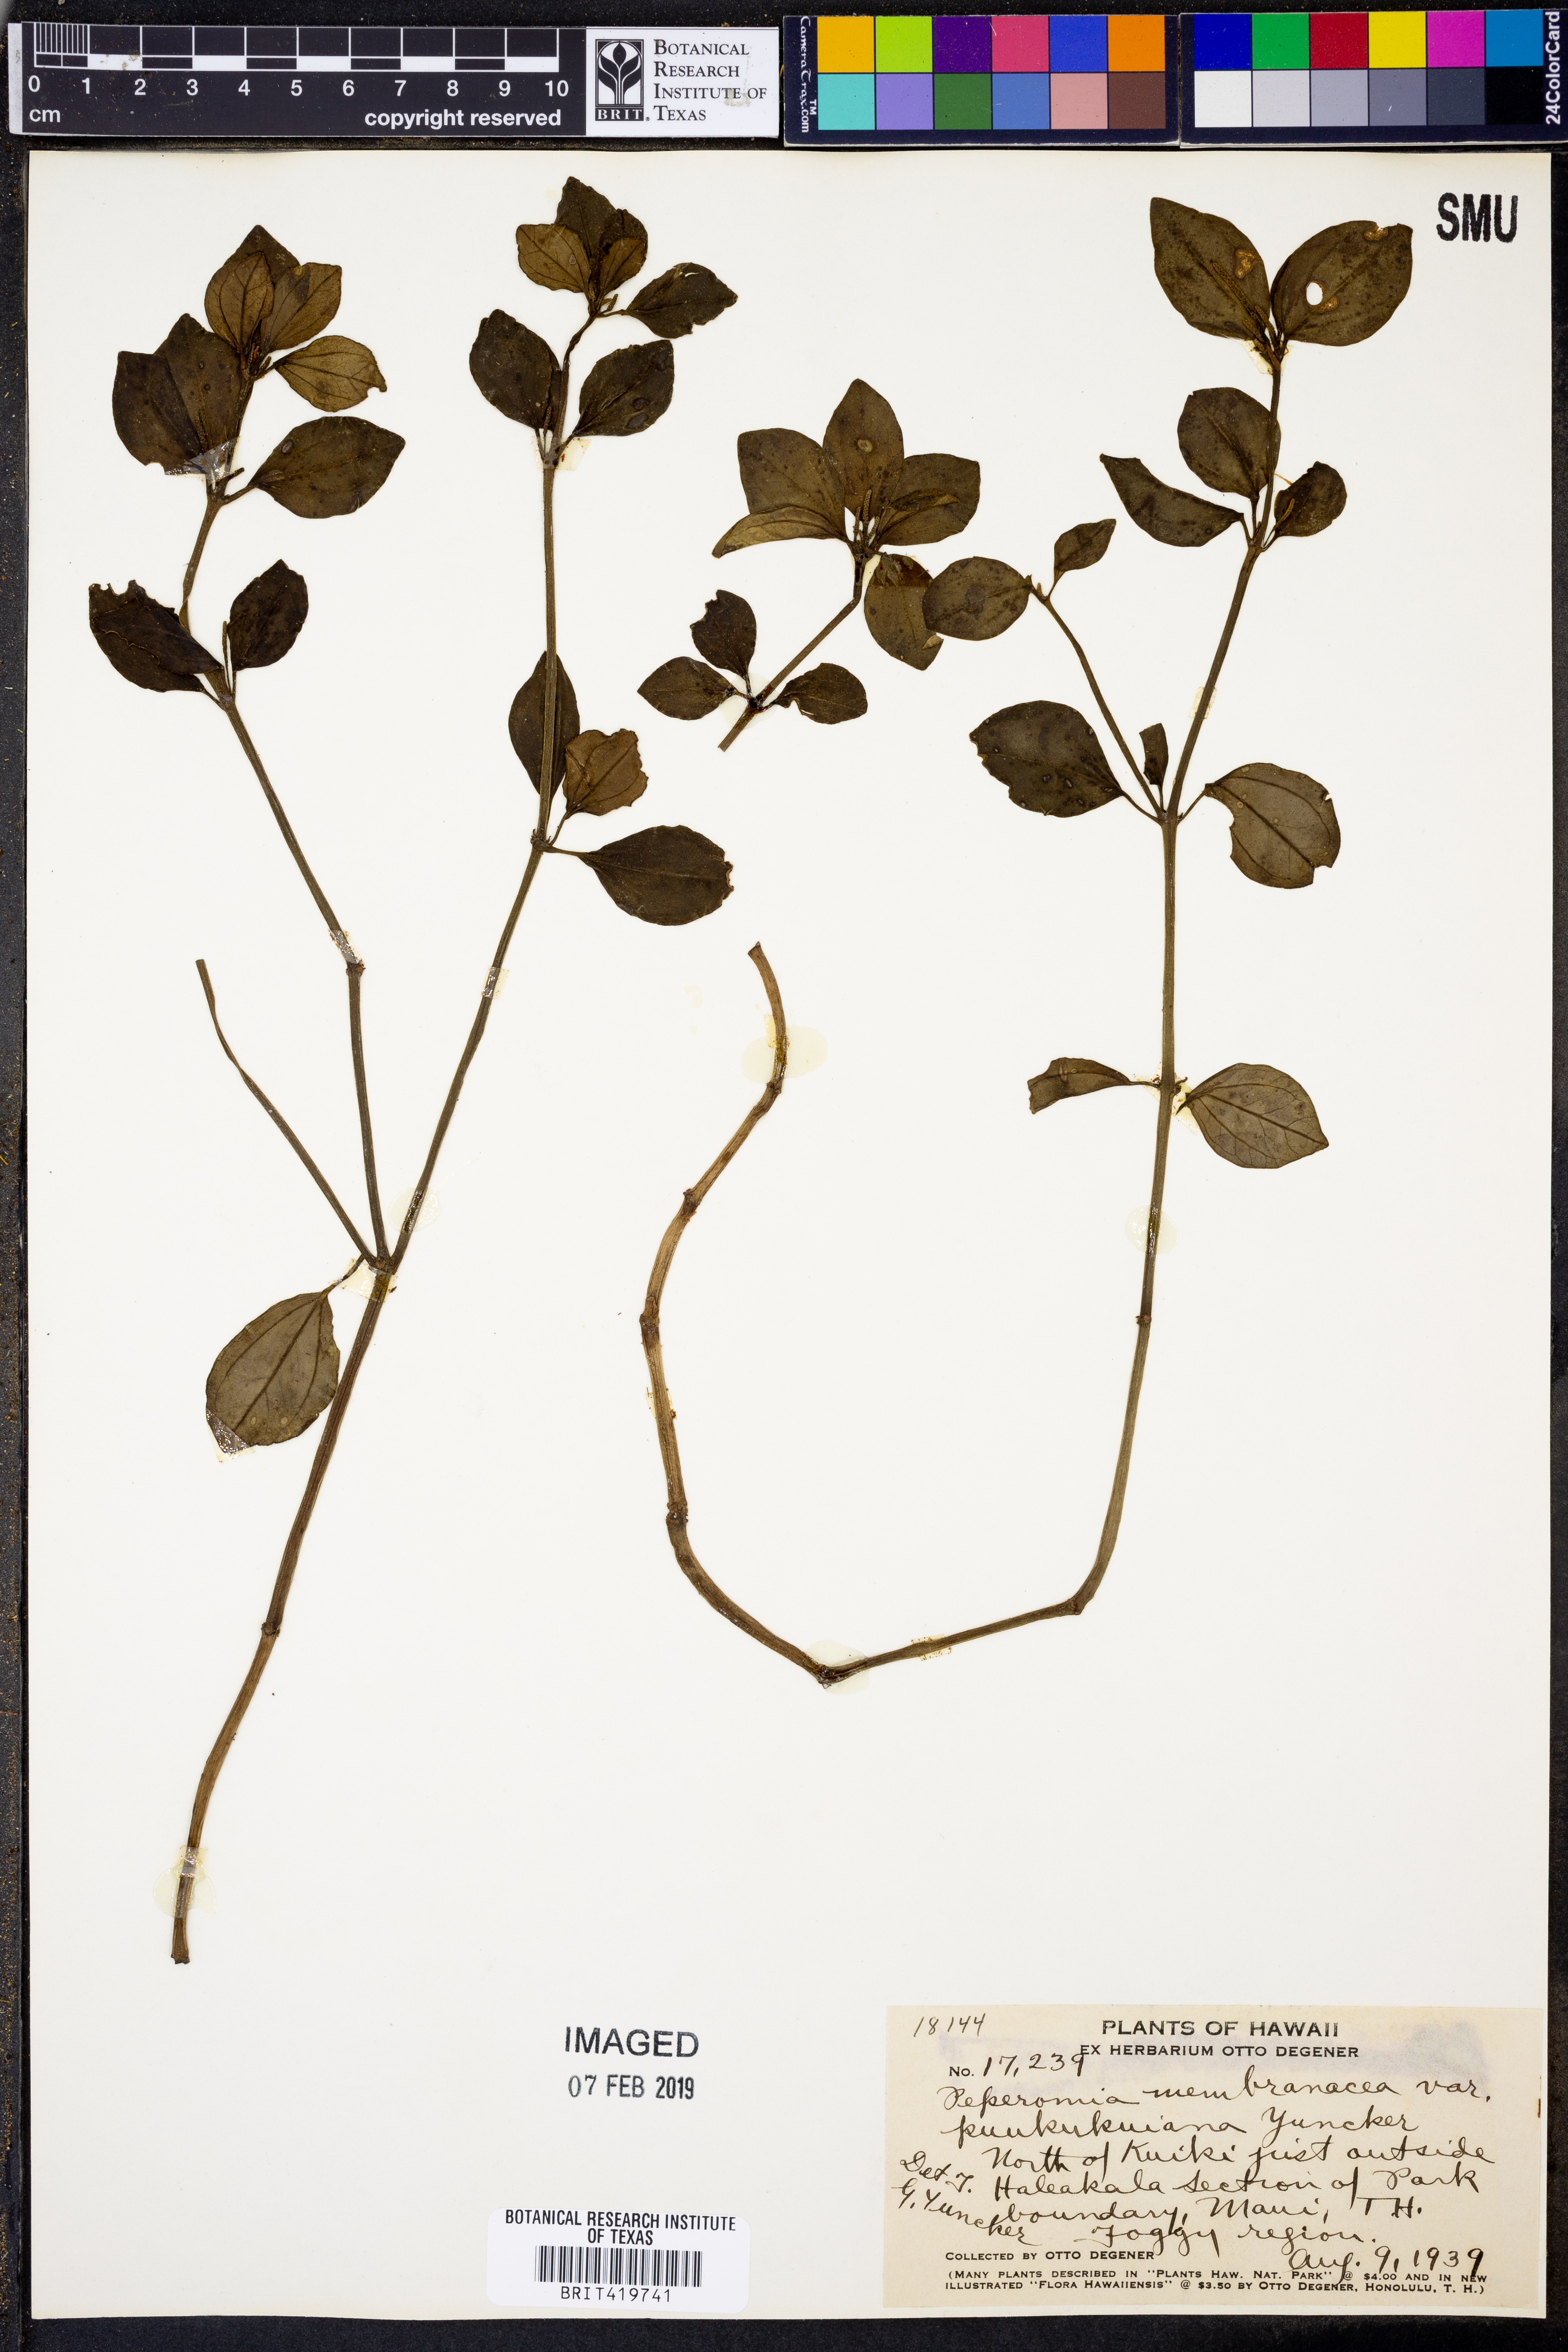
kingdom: Plantae
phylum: Tracheophyta
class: Magnoliopsida
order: Piperales
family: Piperaceae
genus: Peperomia
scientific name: Peperomia membranacea
